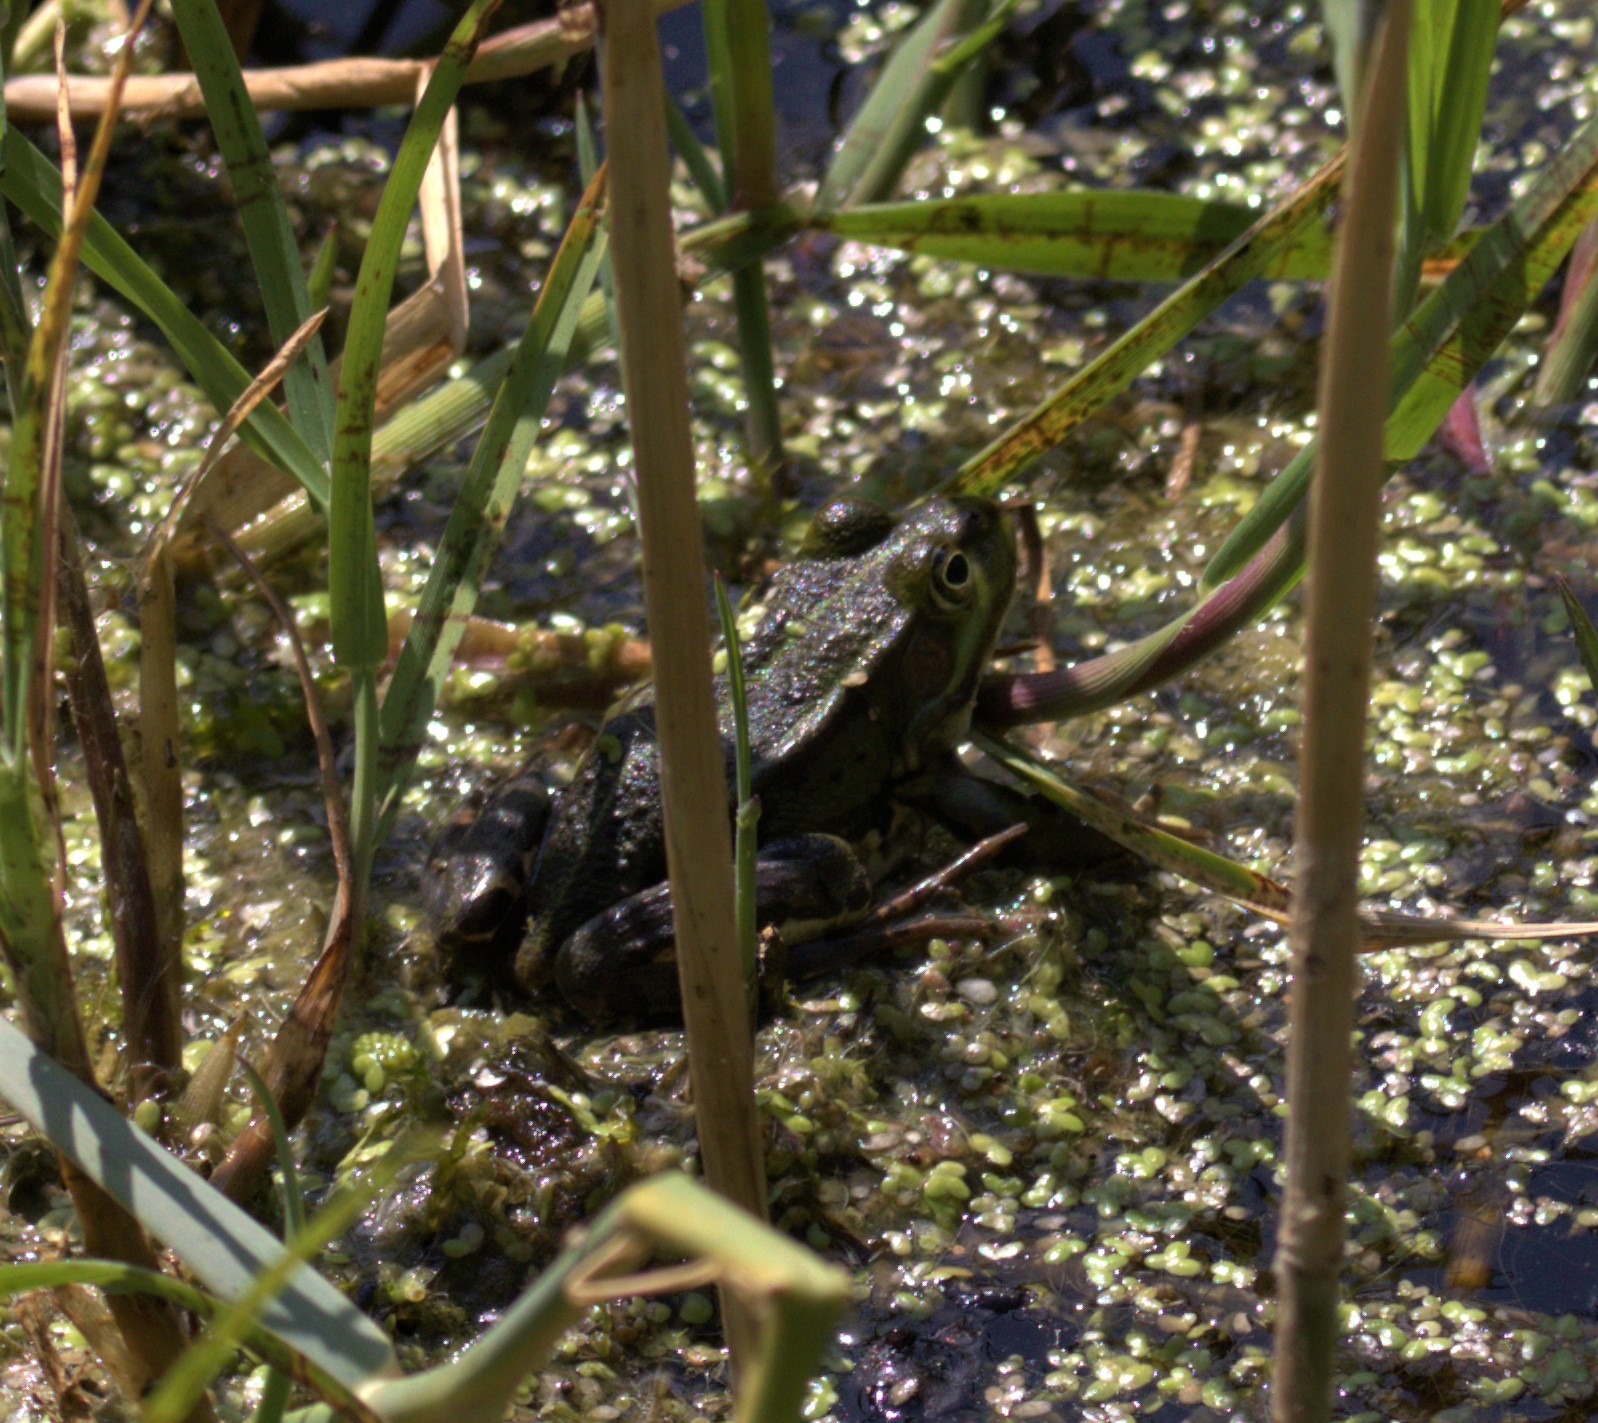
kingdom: Animalia
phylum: Chordata
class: Amphibia
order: Anura
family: Ranidae
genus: Pelophylax
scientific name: Pelophylax lessonae
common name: Grøn frø
